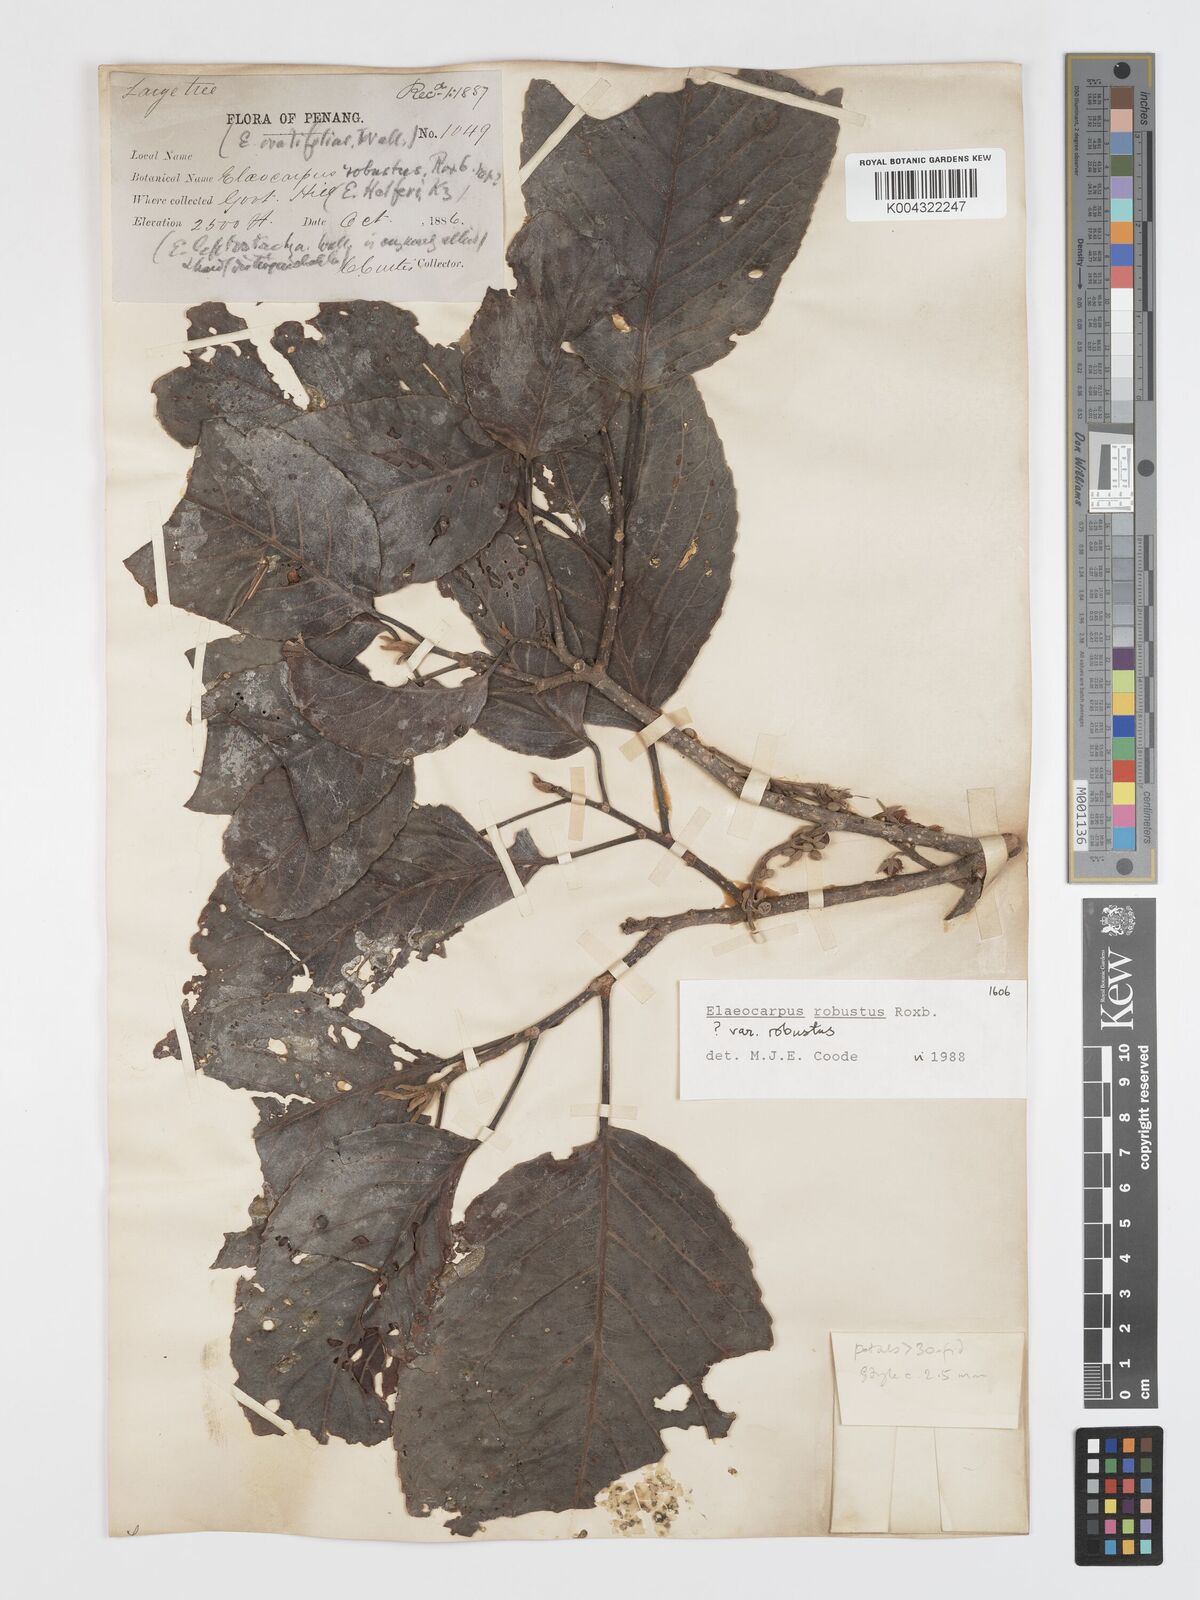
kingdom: Plantae
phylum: Tracheophyta
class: Magnoliopsida
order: Oxalidales
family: Elaeocarpaceae
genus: Elaeocarpus
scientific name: Elaeocarpus robustus
